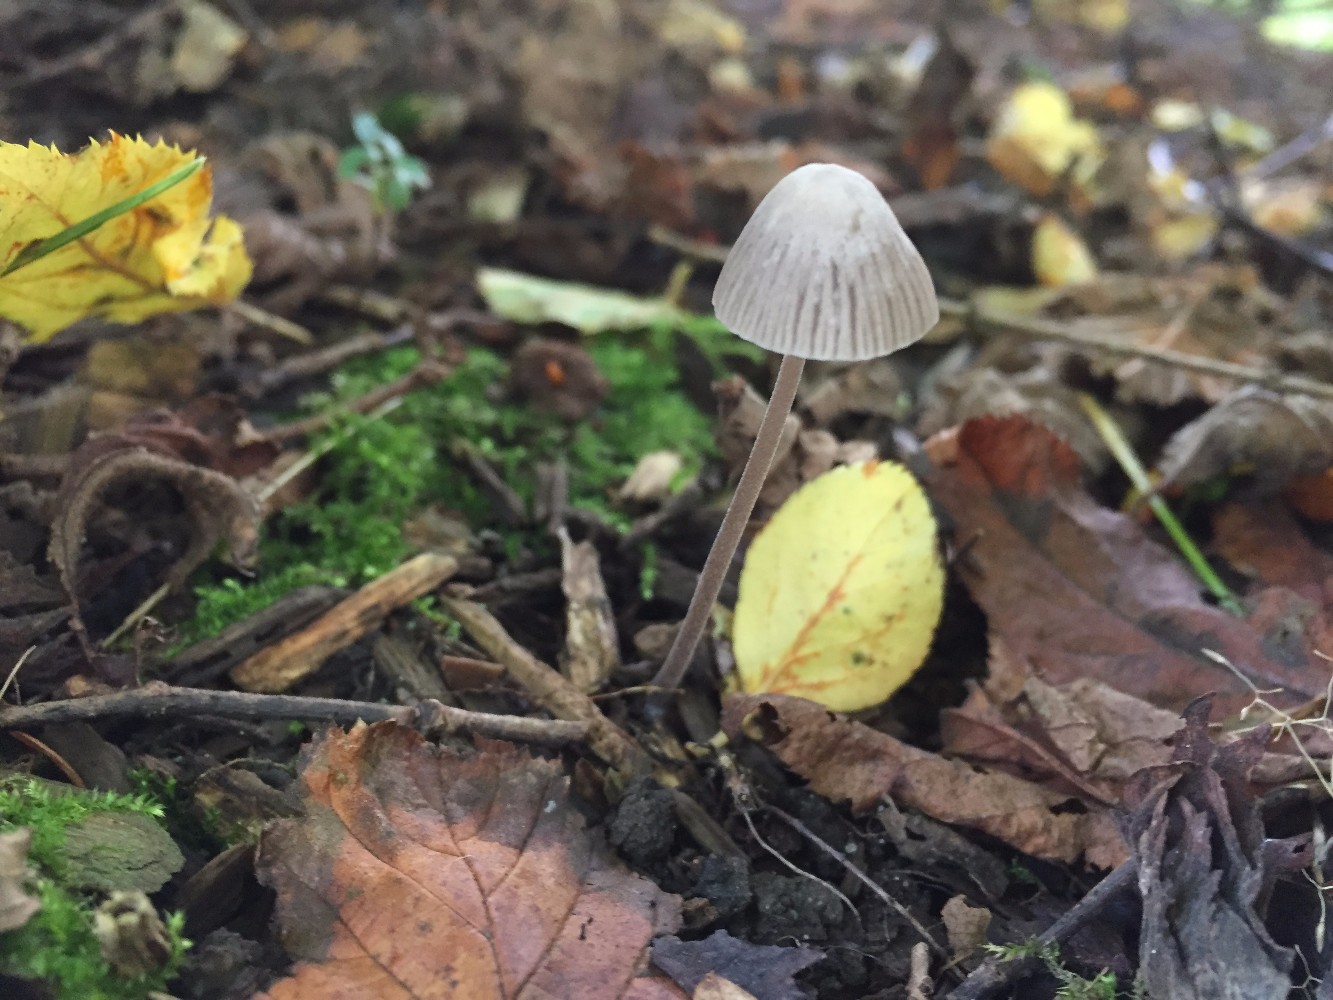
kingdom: Fungi
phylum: Basidiomycota
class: Agaricomycetes
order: Agaricales
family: Mycenaceae
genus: Mycena
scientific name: Mycena leptocephala
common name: klor-huesvamp
